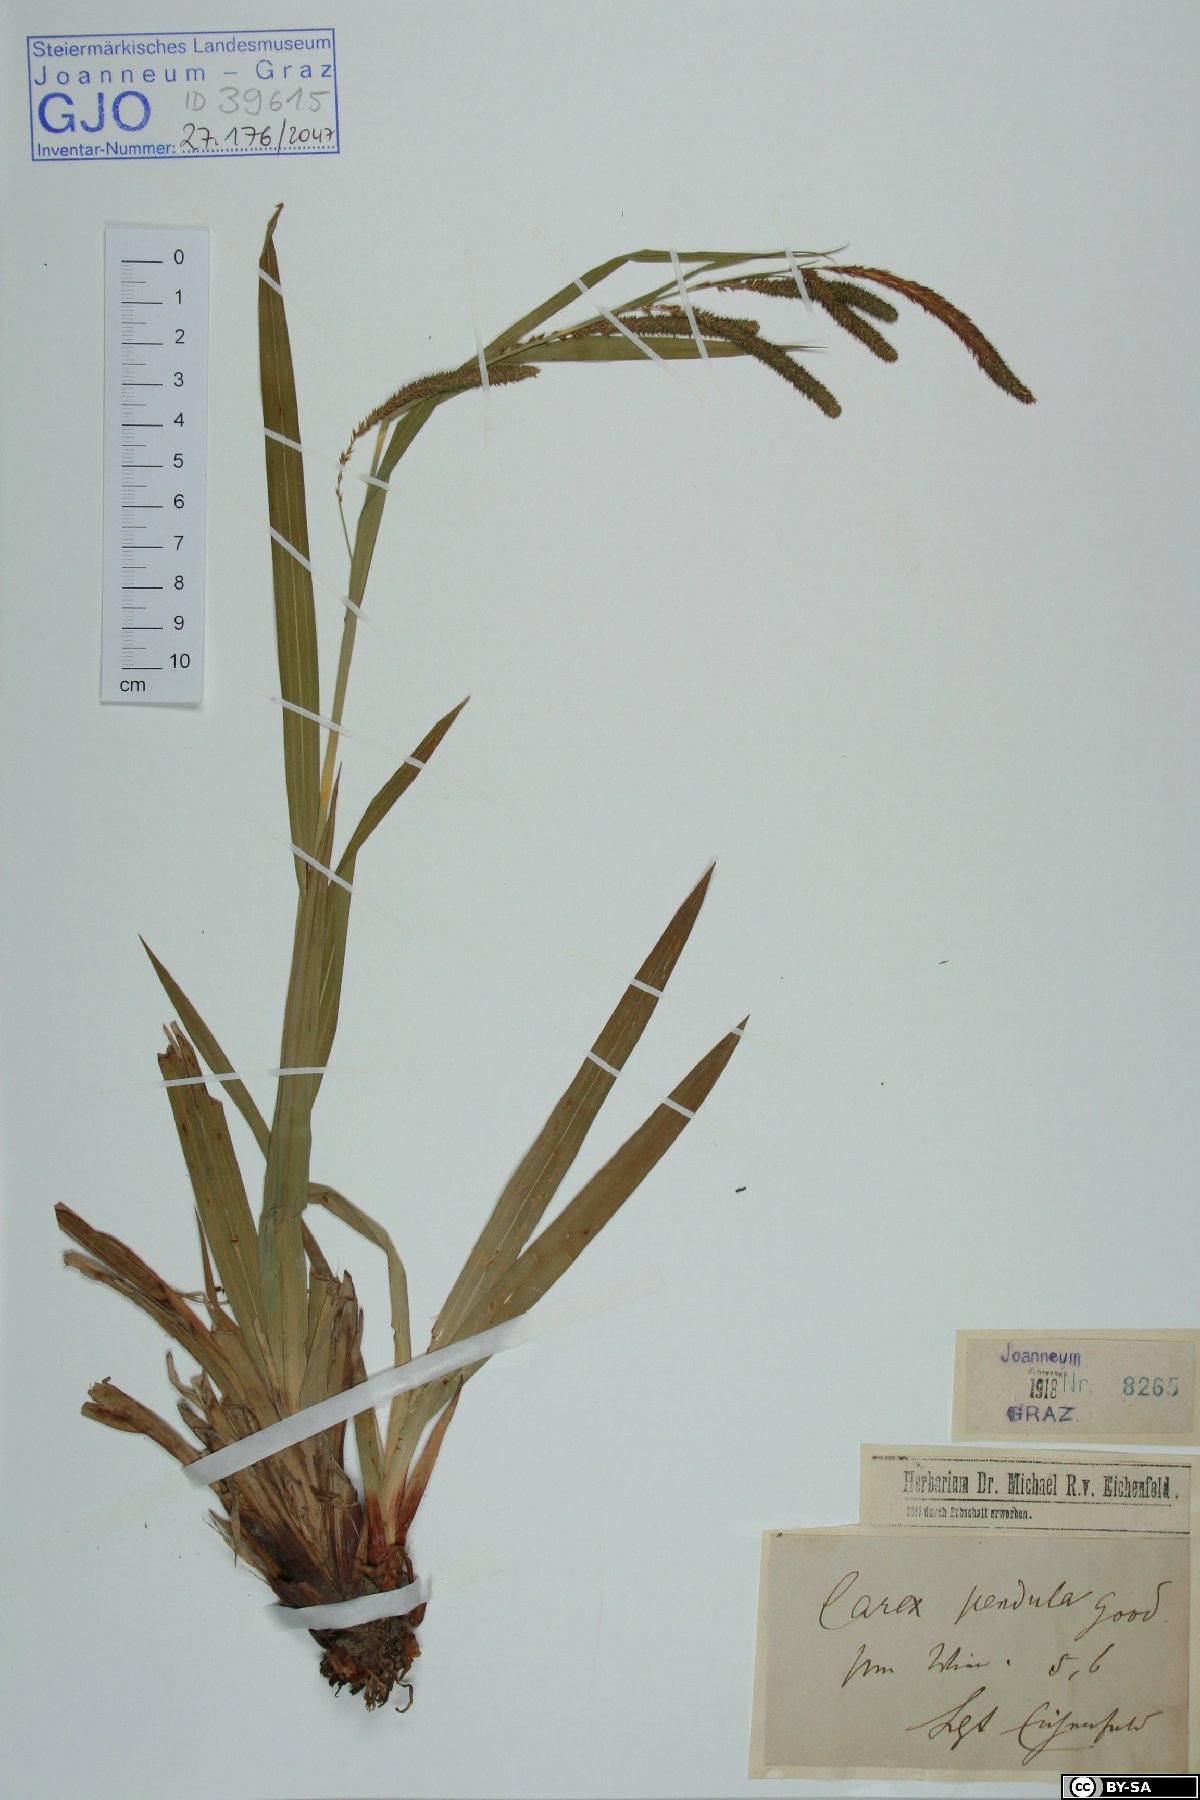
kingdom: Plantae
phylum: Tracheophyta
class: Liliopsida
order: Poales
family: Cyperaceae
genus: Carex
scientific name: Carex pendula
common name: Pendulous sedge
